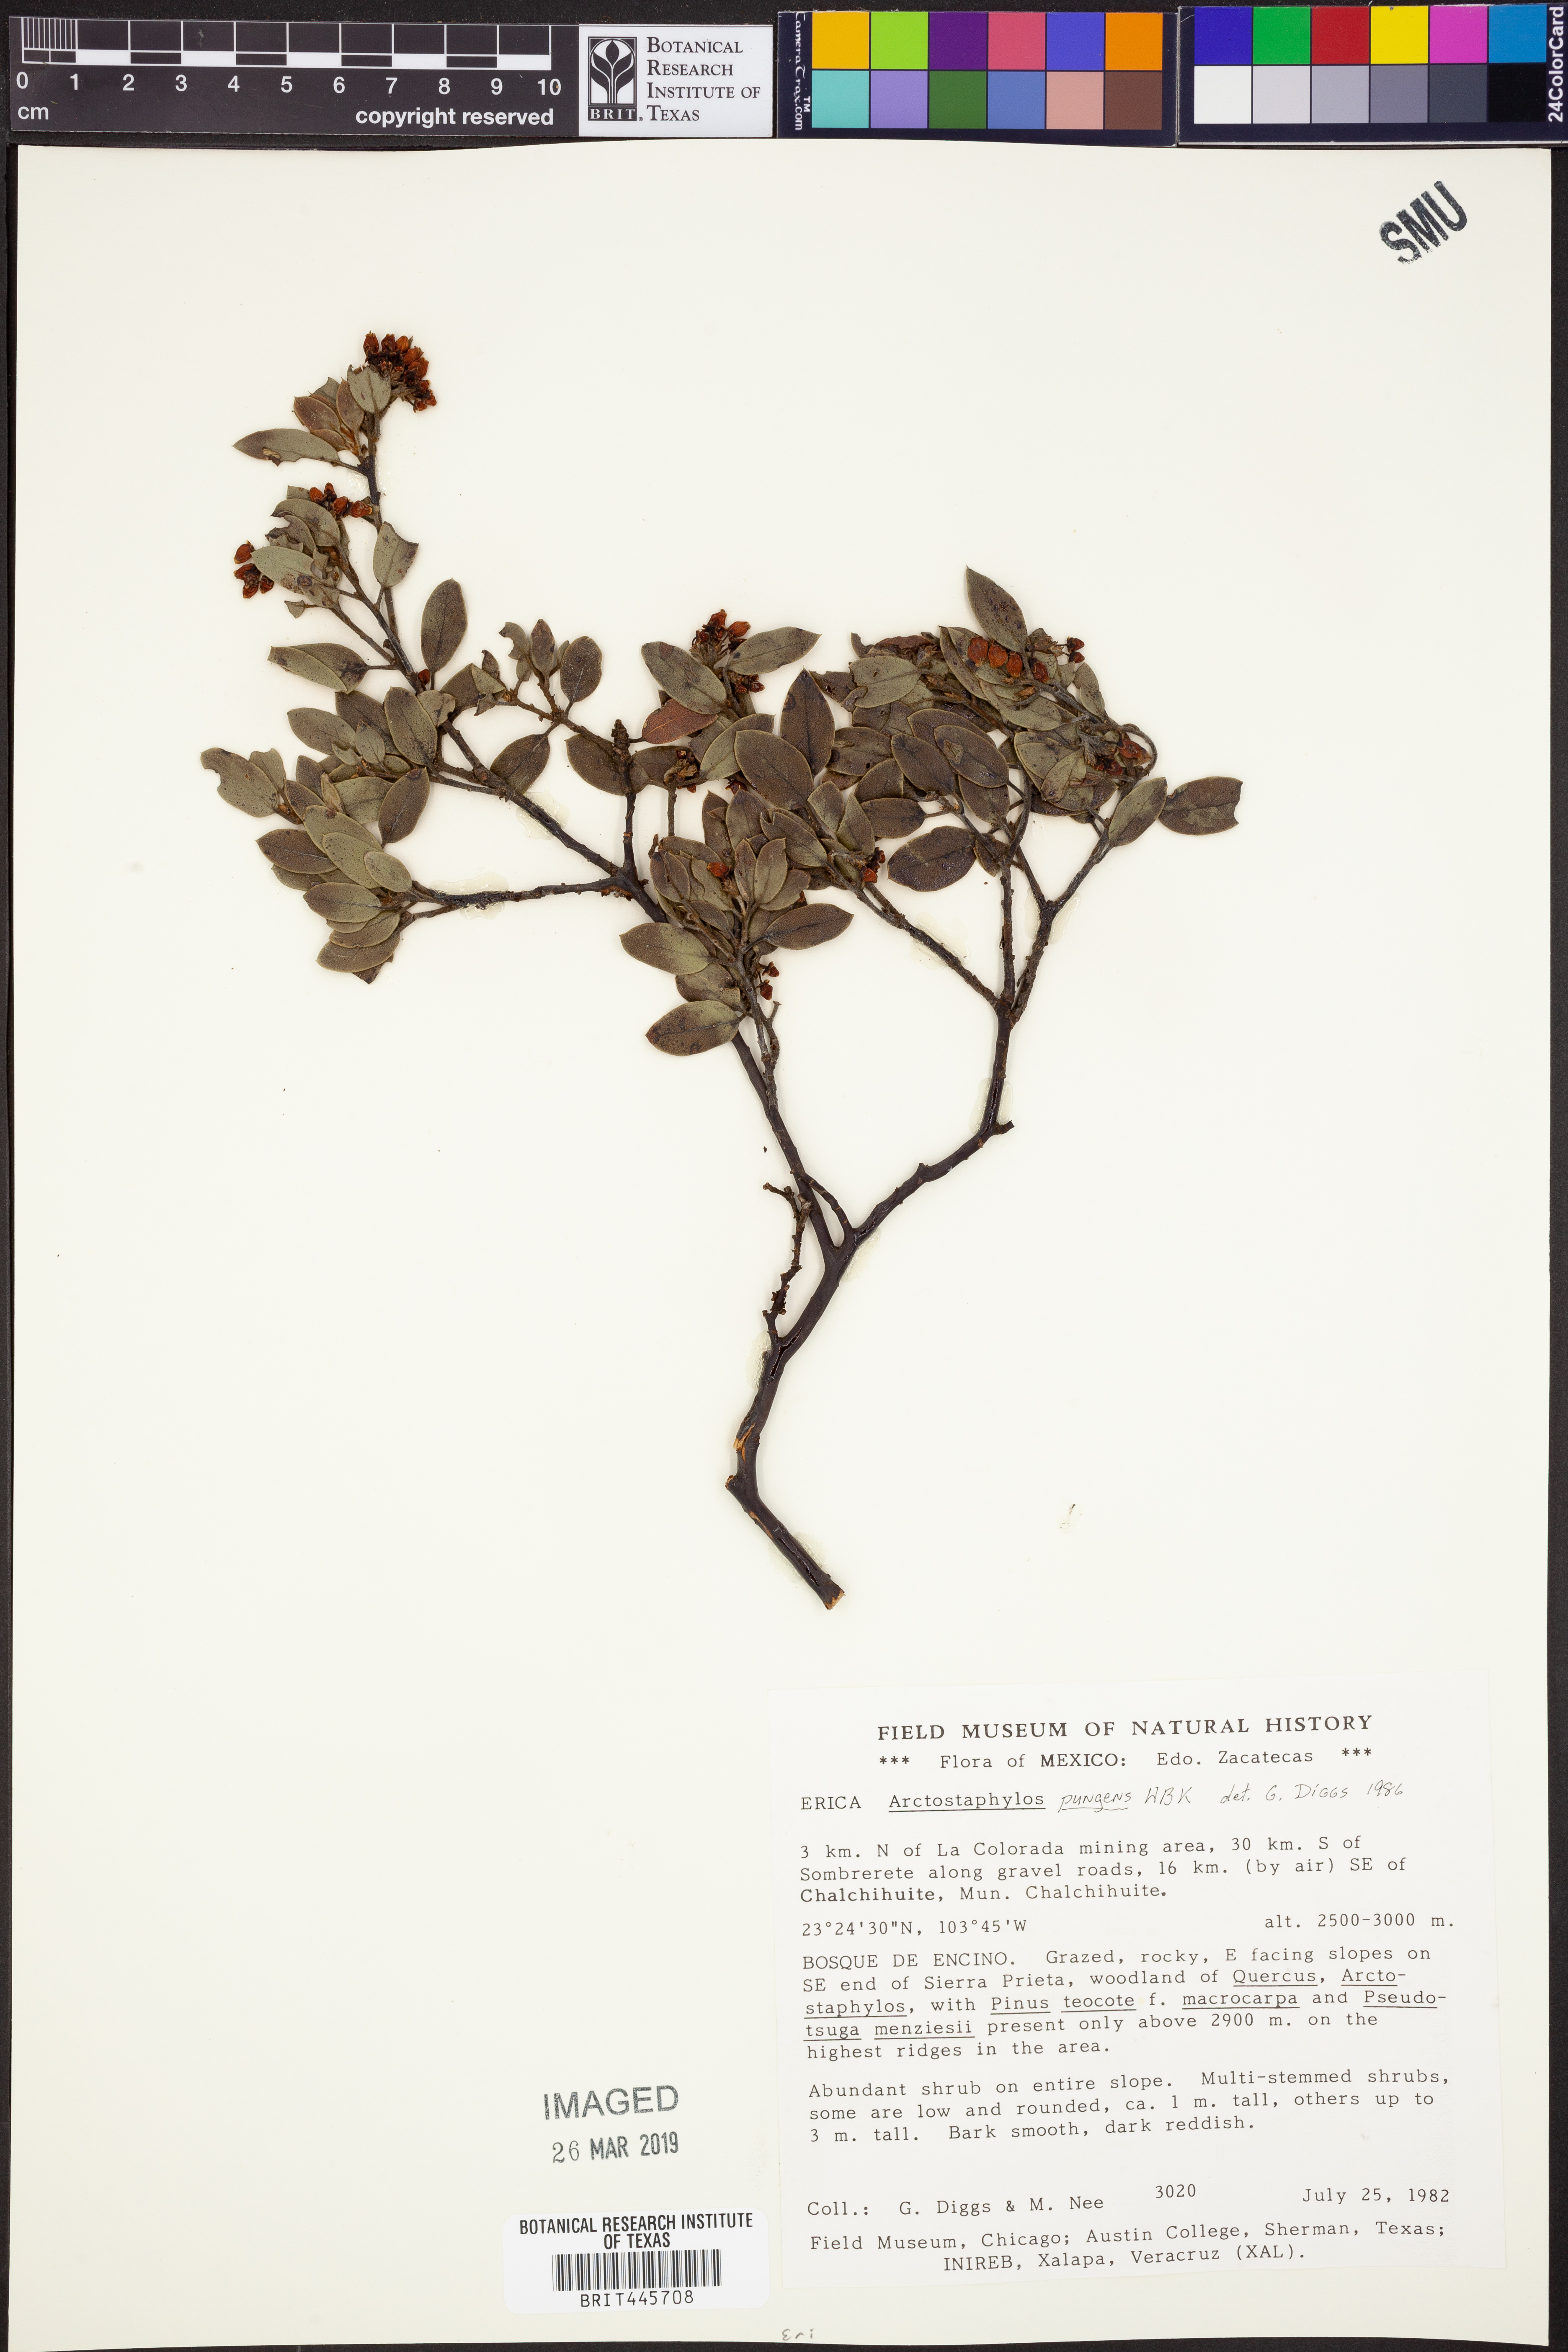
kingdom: Plantae
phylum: Tracheophyta
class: Magnoliopsida
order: Ericales
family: Ericaceae
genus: Arctostaphylos
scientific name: Arctostaphylos pungens
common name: Mexican manzanita
